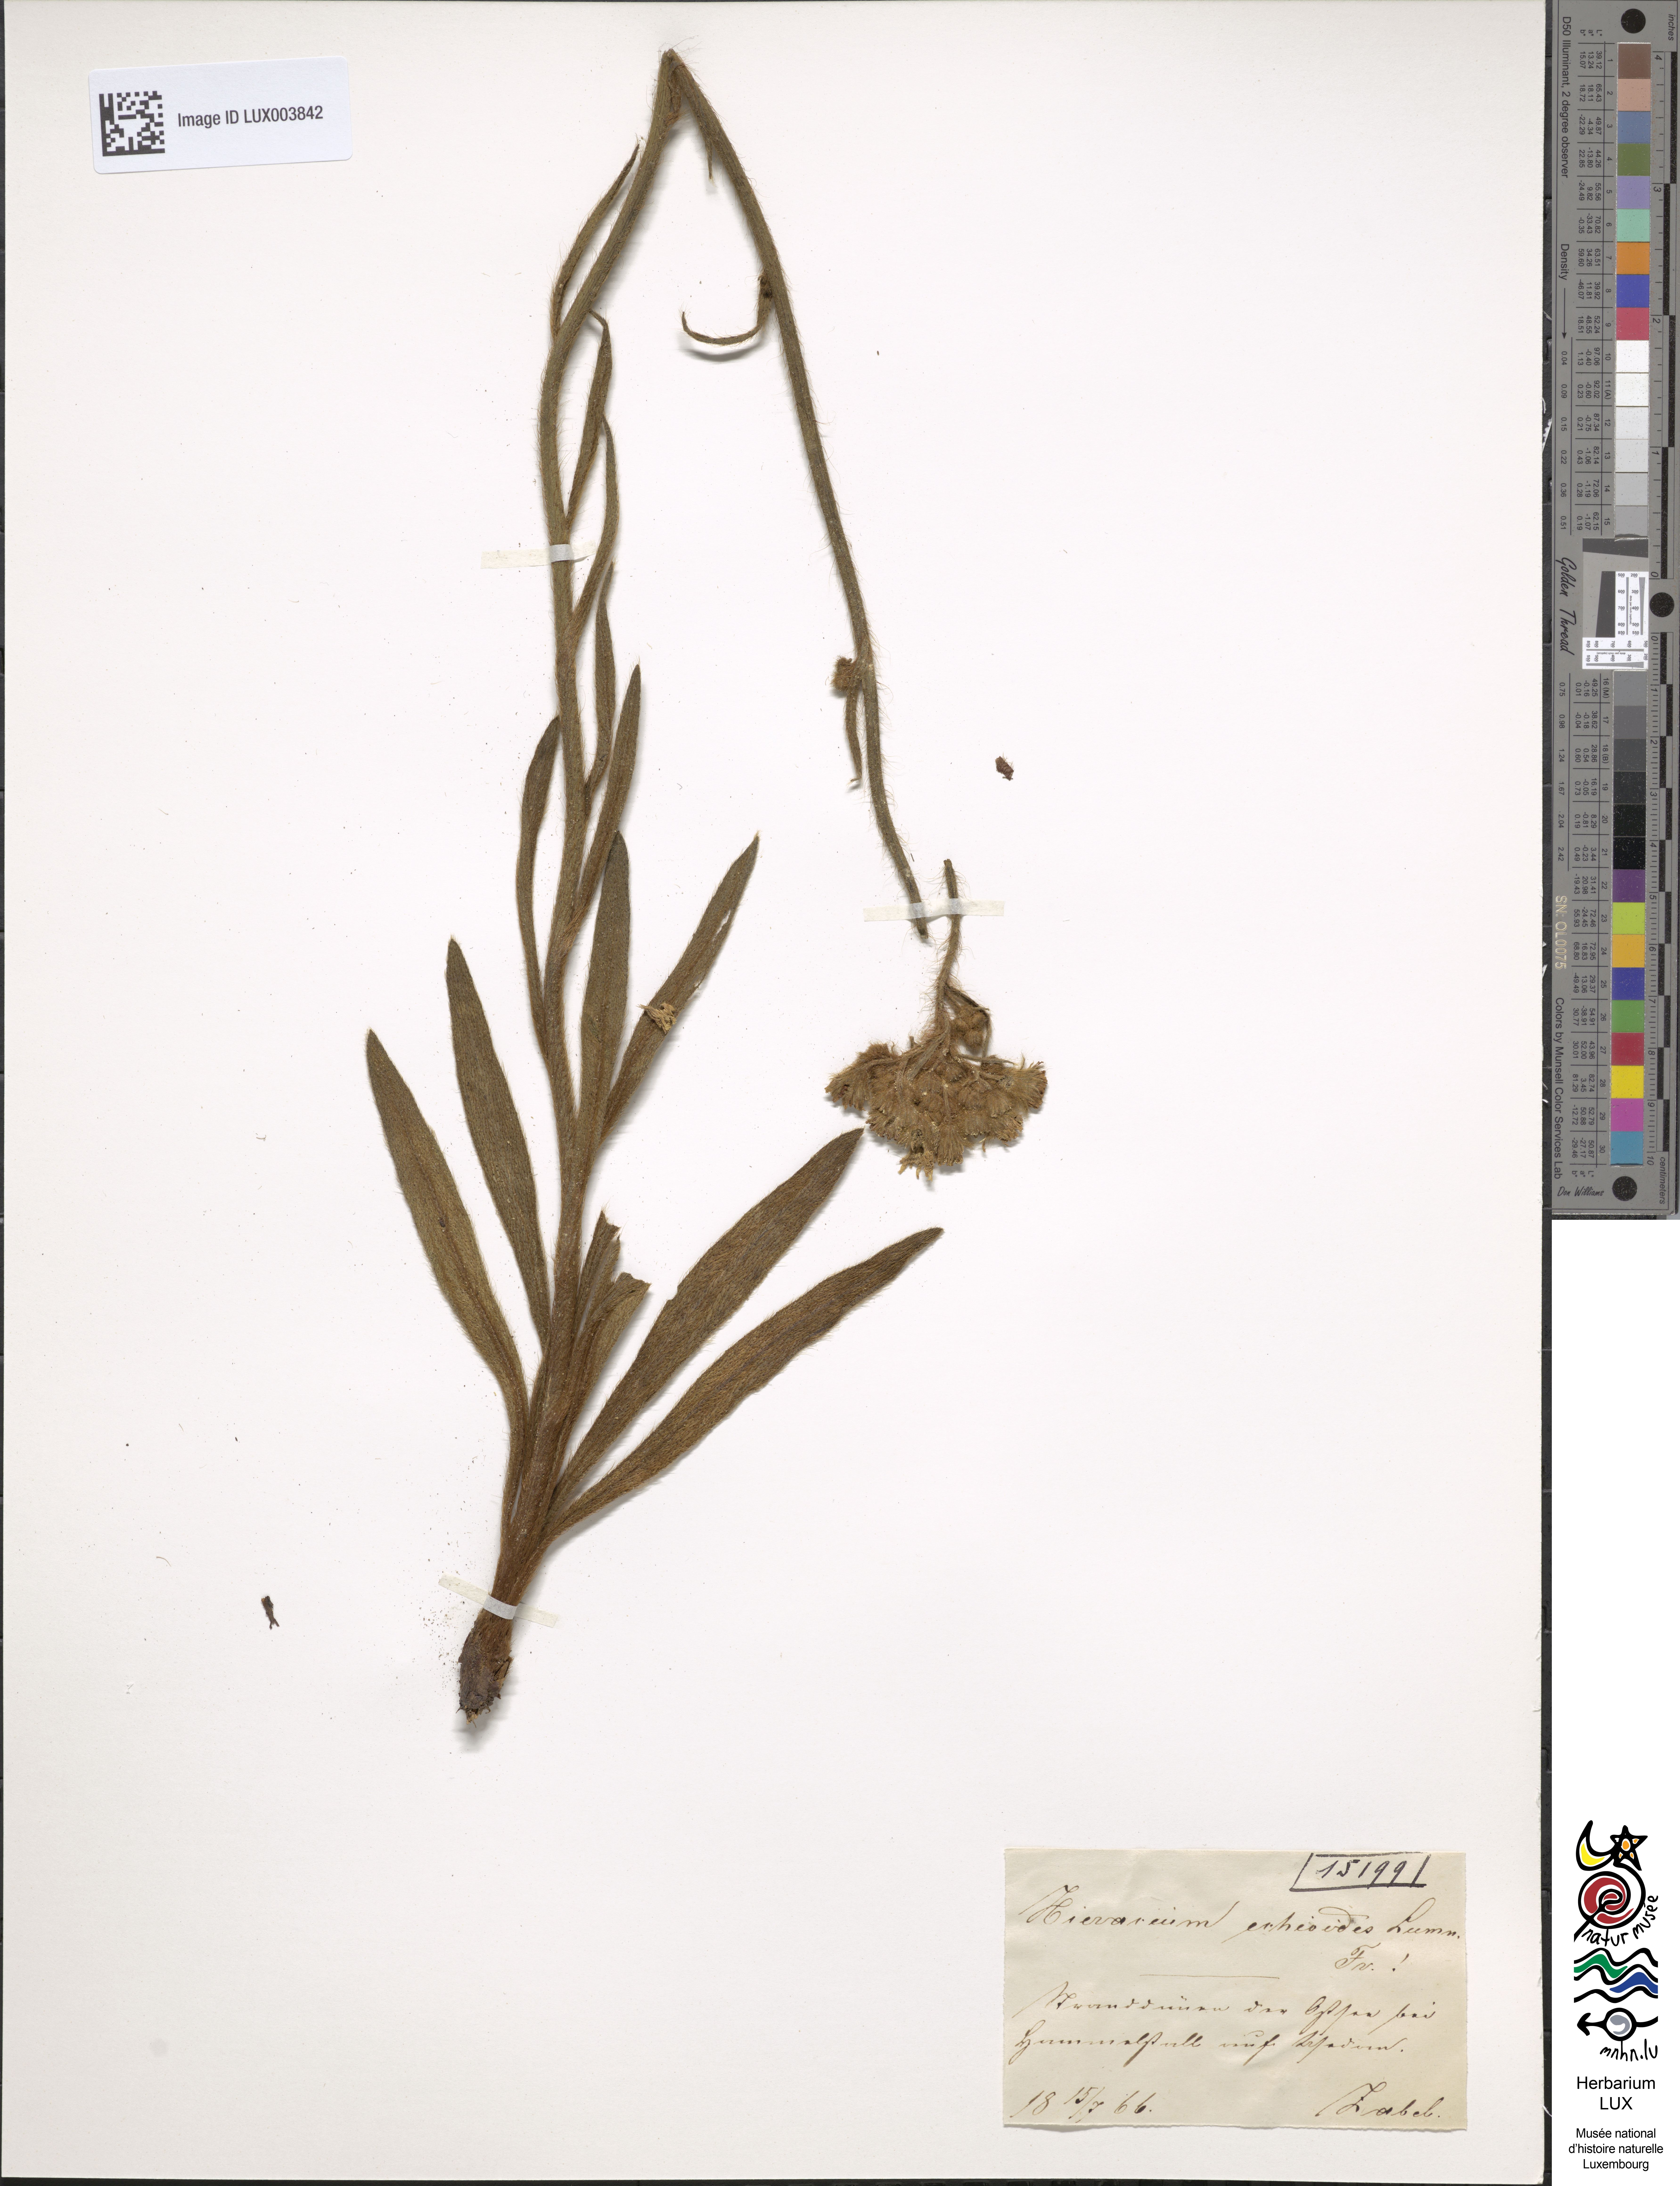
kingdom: Plantae
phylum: Tracheophyta
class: Magnoliopsida
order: Asterales
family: Asteraceae
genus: Pilosella
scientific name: Pilosella echioides
